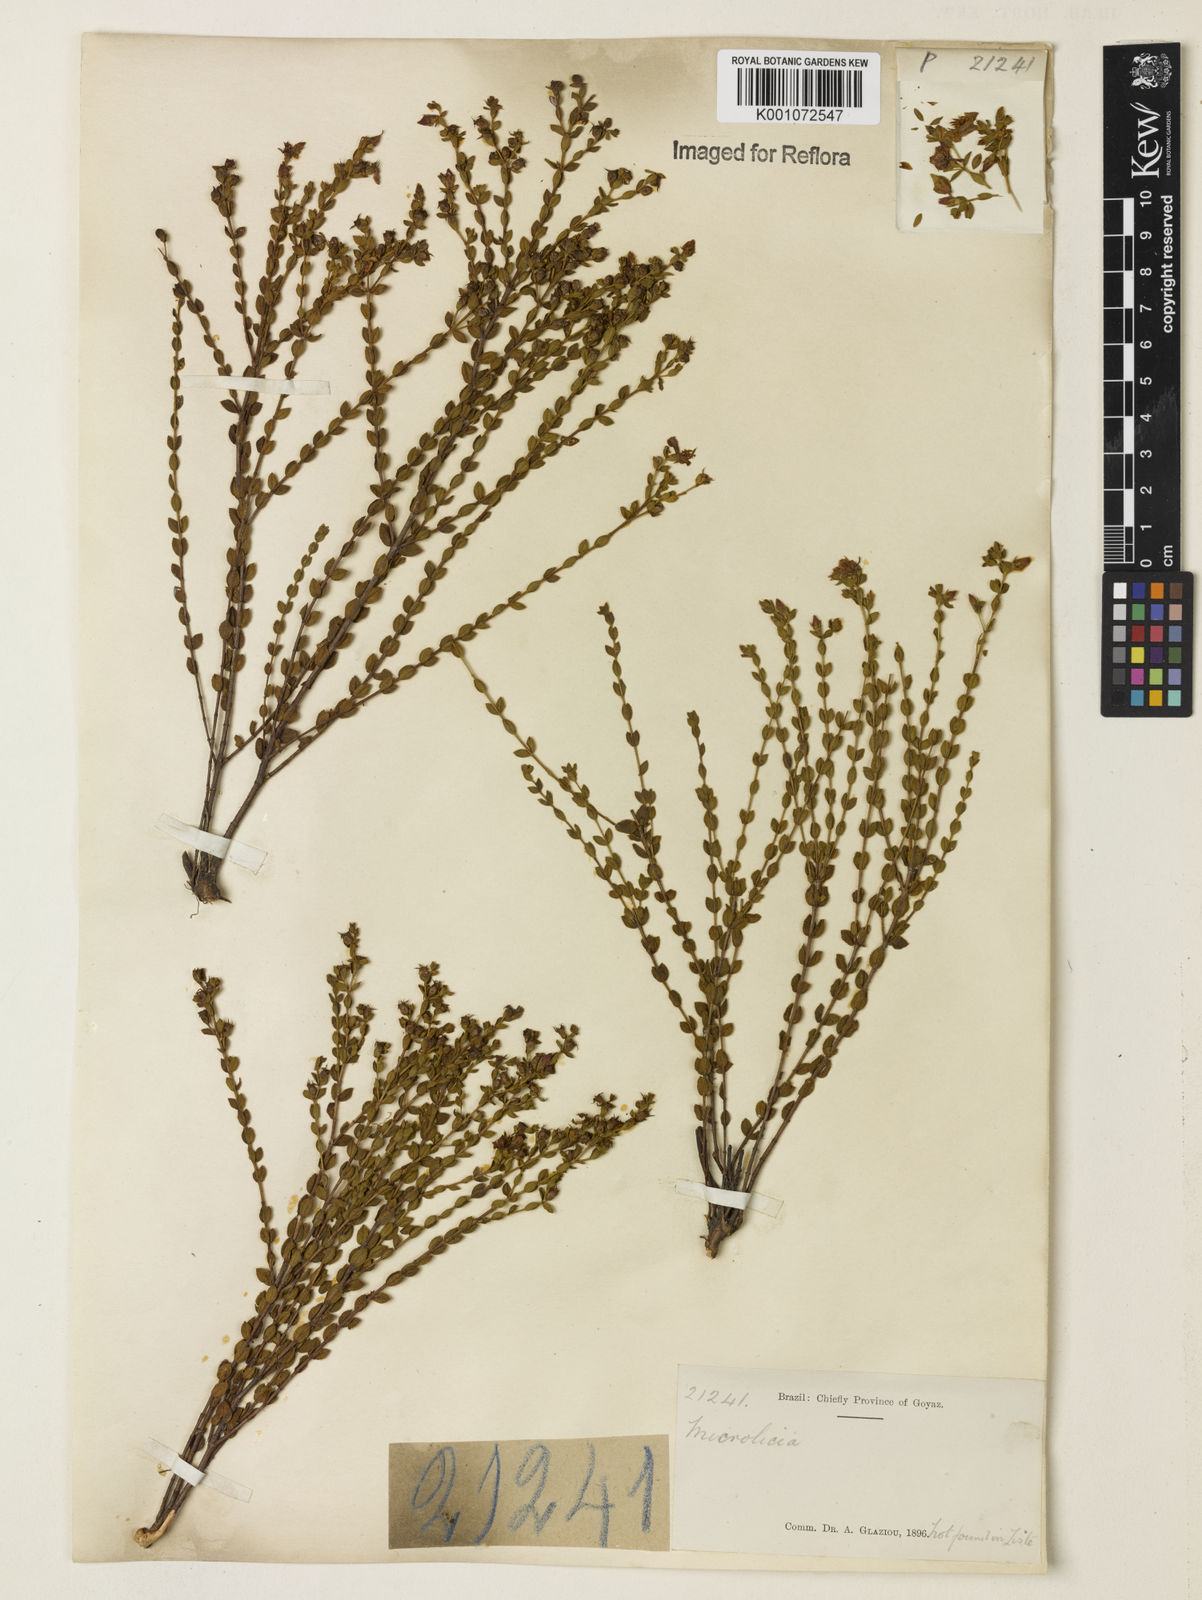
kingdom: Plantae
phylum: Tracheophyta
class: Magnoliopsida
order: Myrtales
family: Melastomataceae
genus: Microlicia
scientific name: Microlicia
